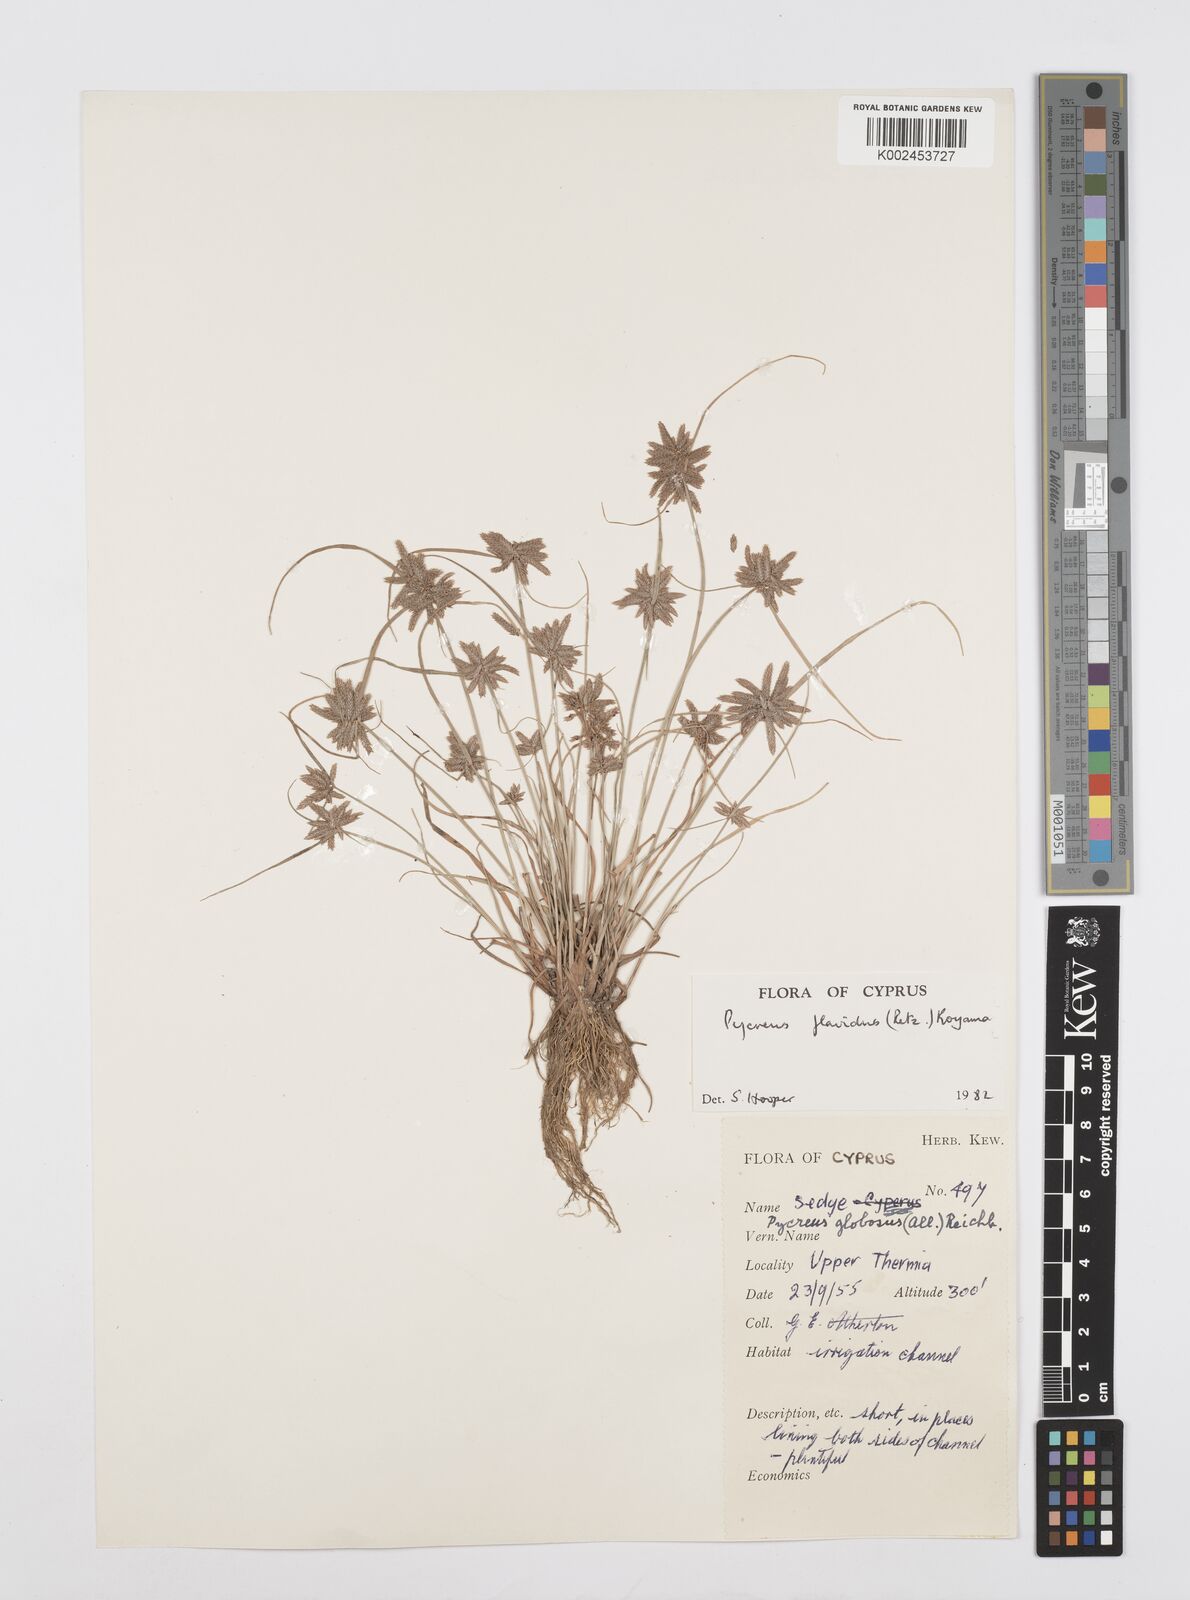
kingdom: Plantae
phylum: Tracheophyta
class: Liliopsida
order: Poales
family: Cyperaceae
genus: Cyperus
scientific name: Cyperus flavidus
